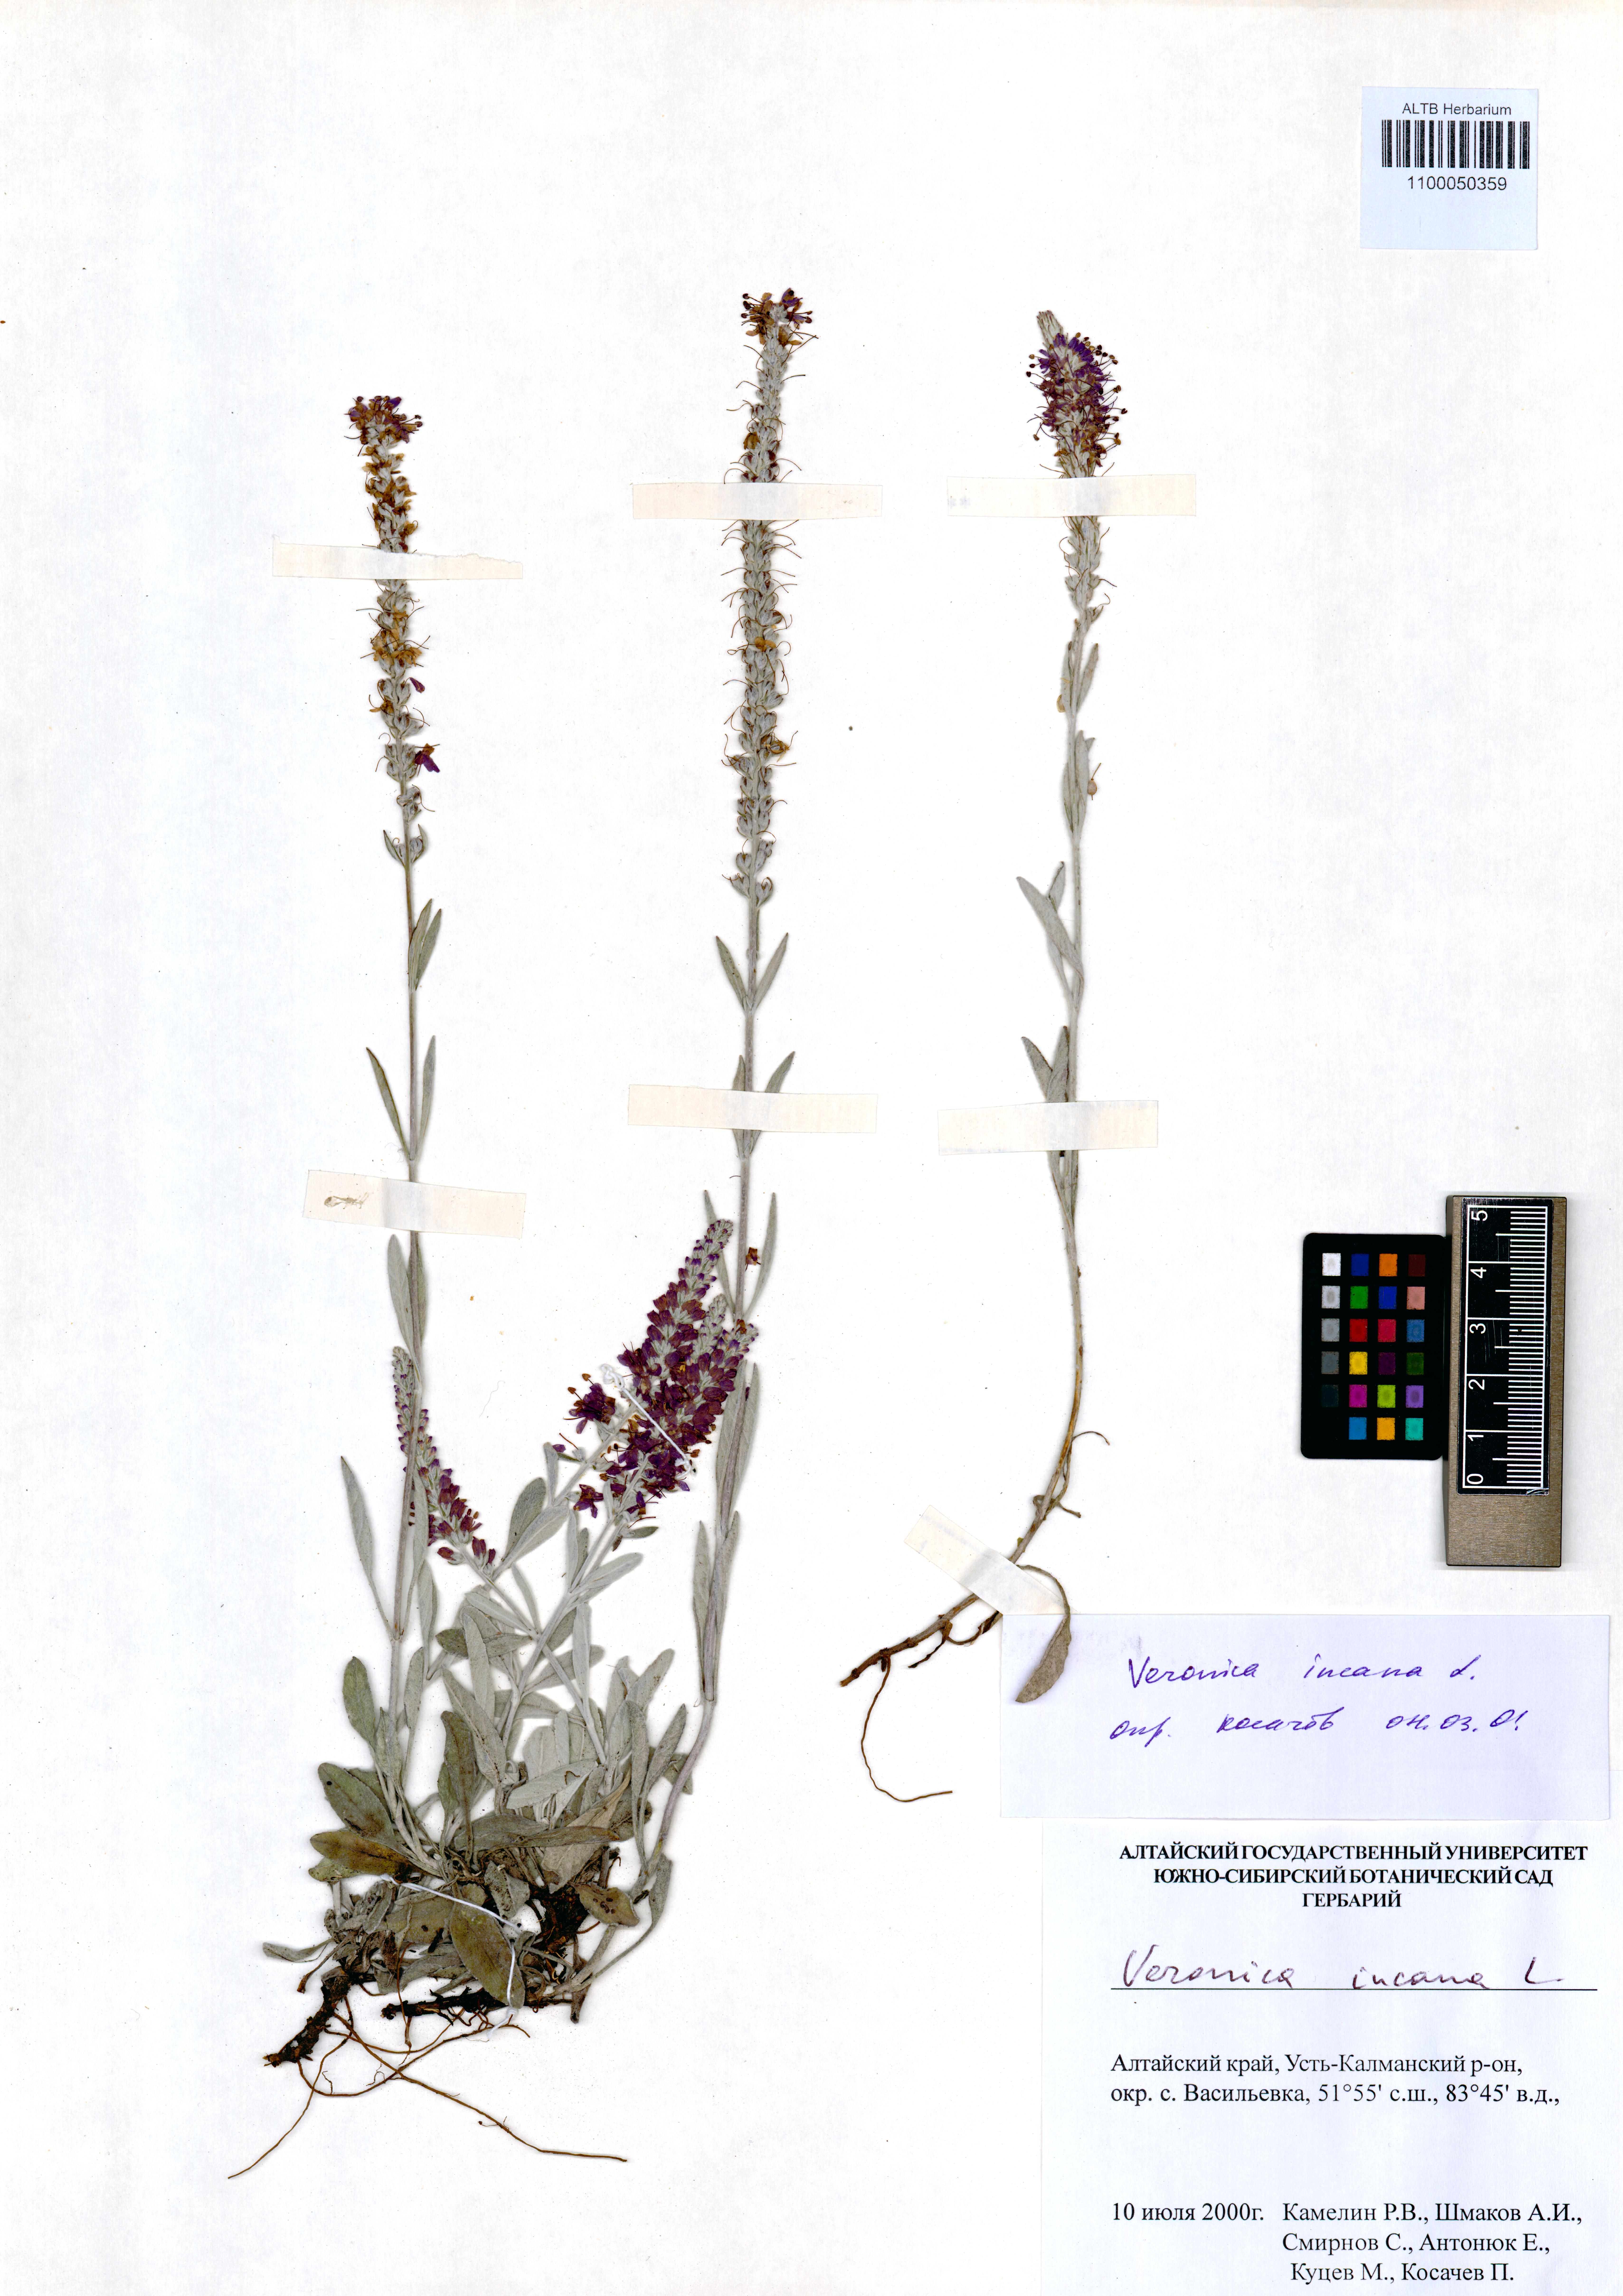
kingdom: Plantae
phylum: Tracheophyta
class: Magnoliopsida
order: Lamiales
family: Plantaginaceae
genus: Veronica
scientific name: Veronica incana
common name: Silver speedwell
